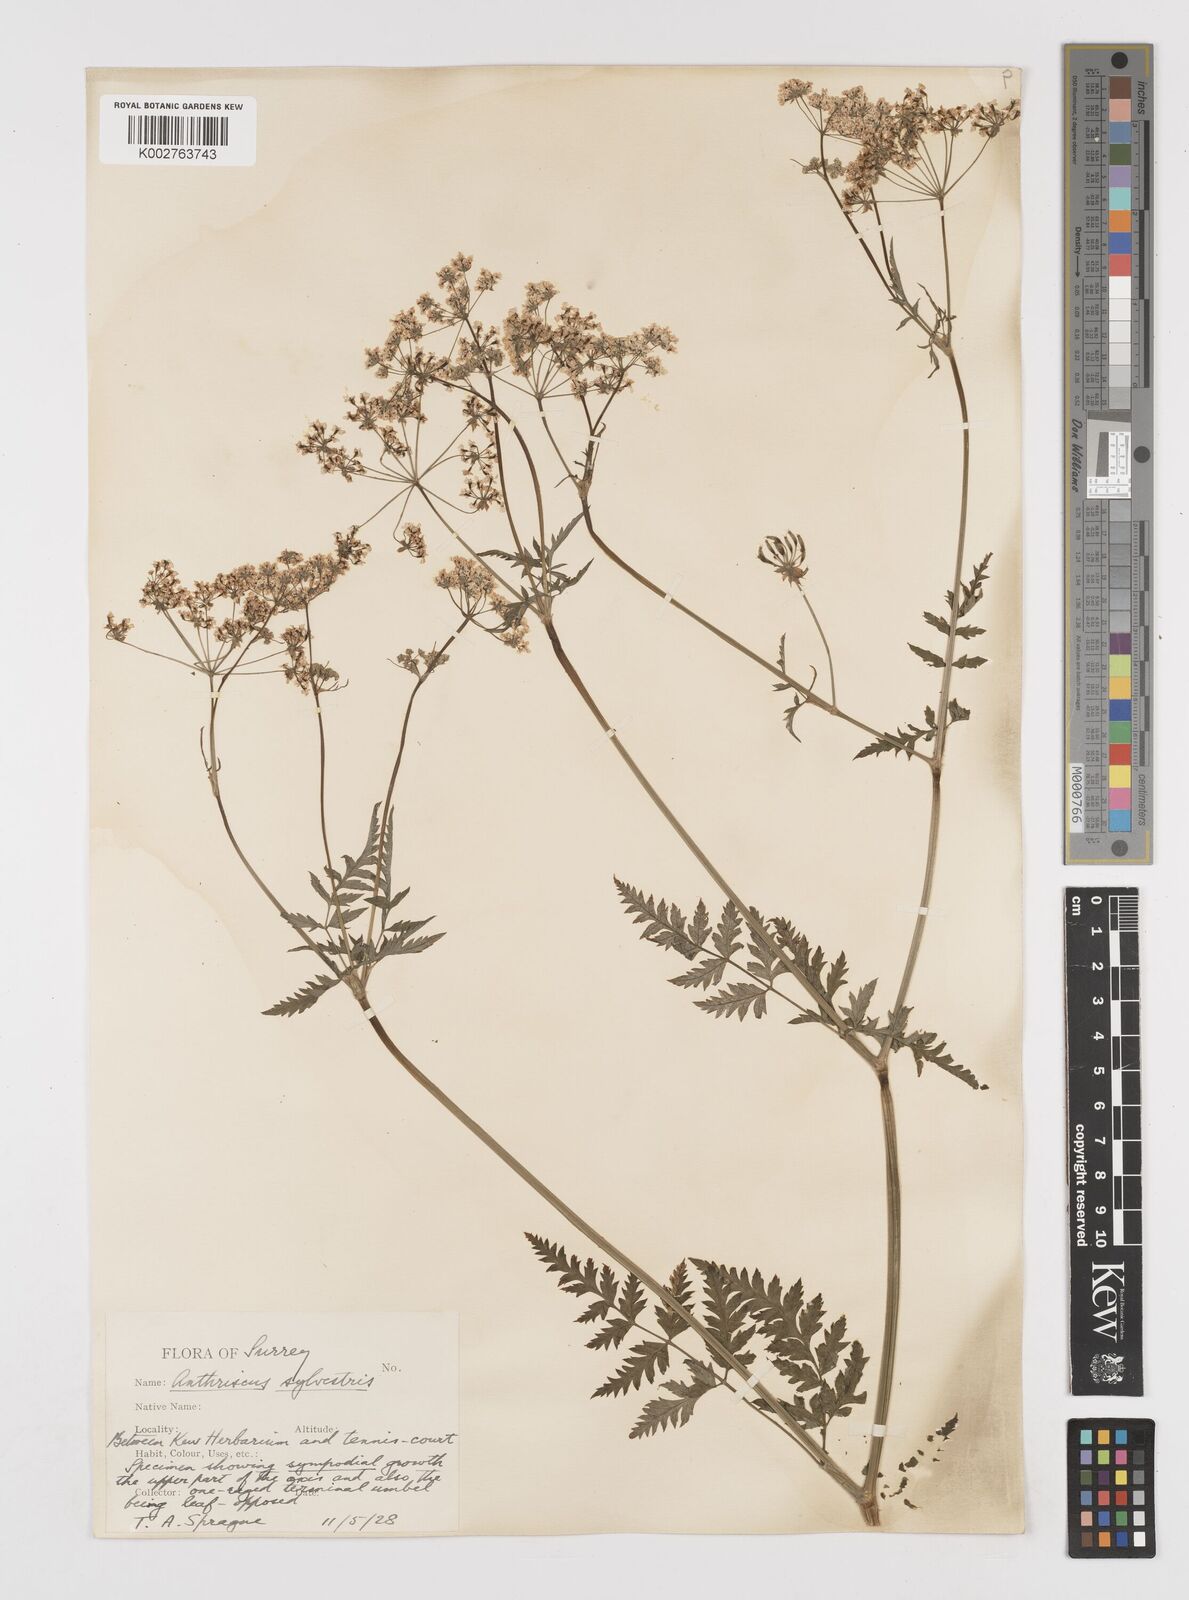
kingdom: Plantae
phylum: Tracheophyta
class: Magnoliopsida
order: Apiales
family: Apiaceae
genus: Anthriscus
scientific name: Anthriscus sylvestris
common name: Cow parsley
